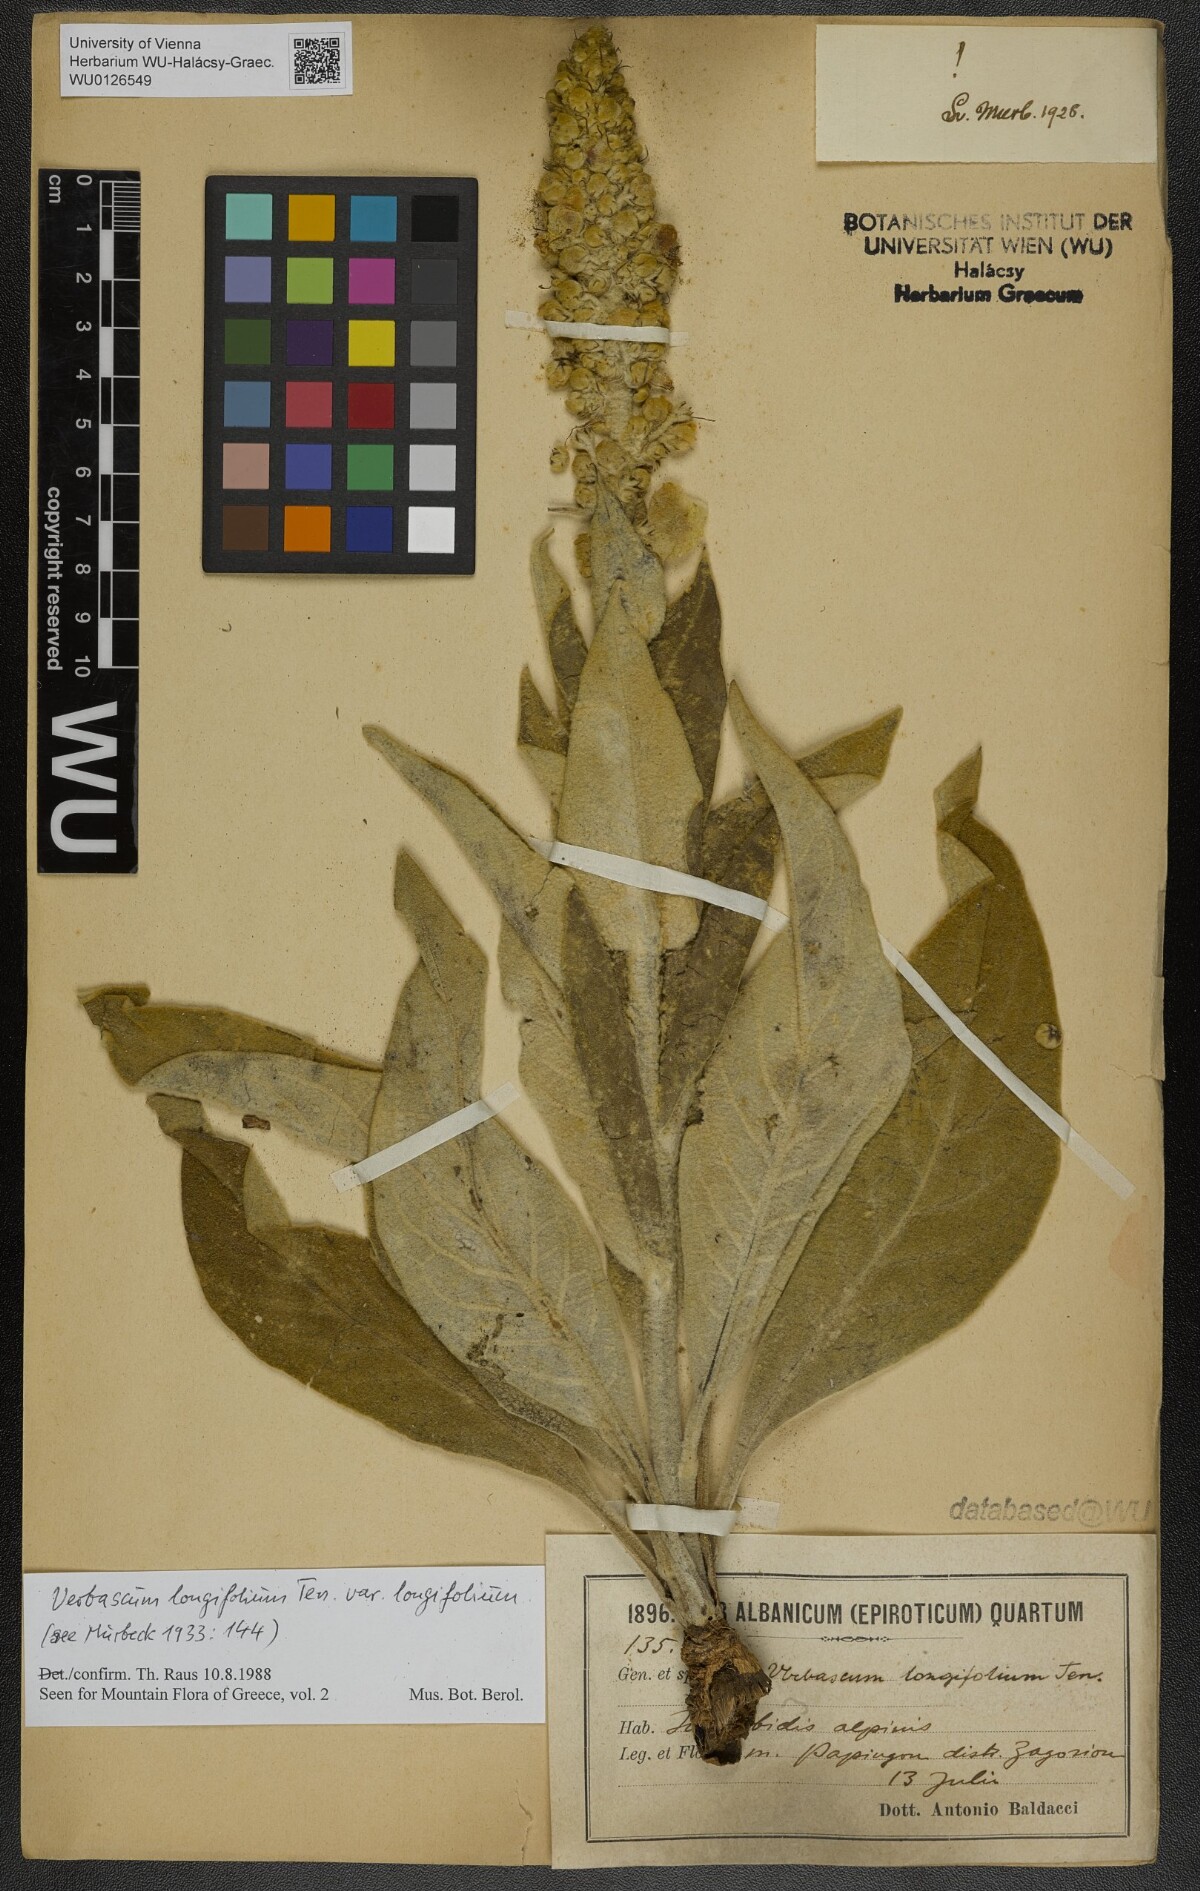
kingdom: Plantae
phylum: Tracheophyta
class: Magnoliopsida
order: Lamiales
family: Scrophulariaceae
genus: Verbascum
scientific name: Verbascum longifolium
